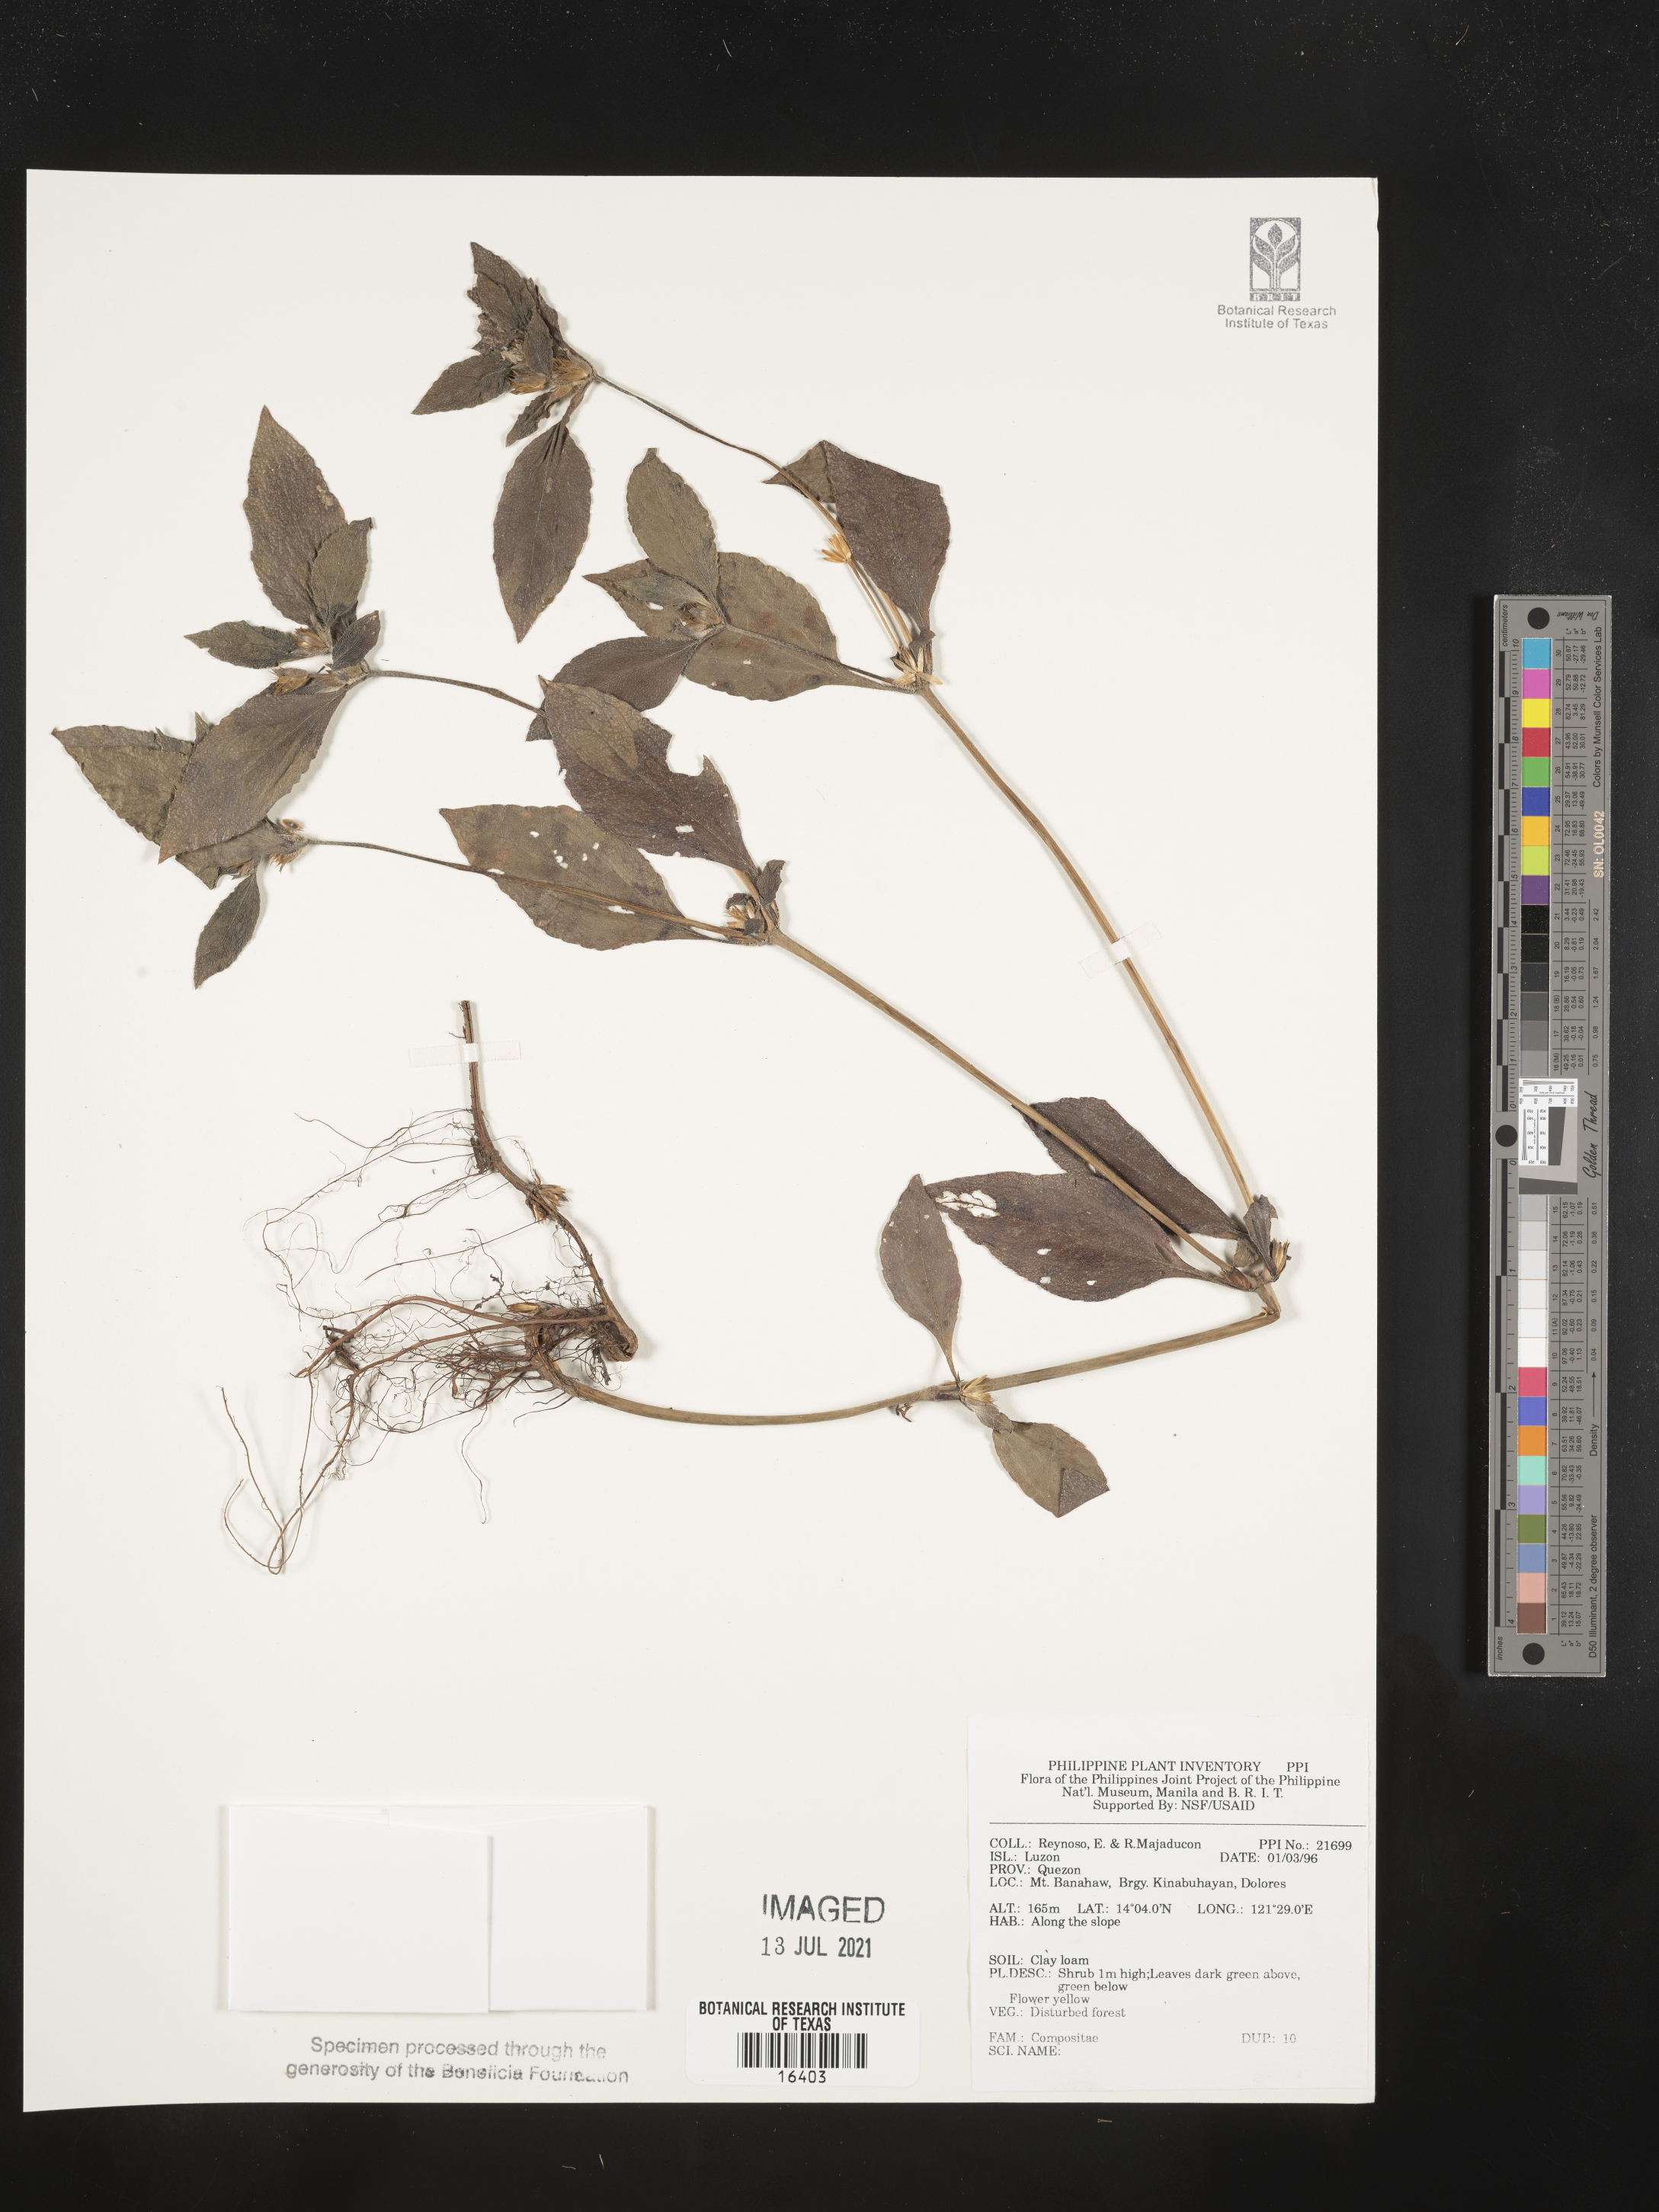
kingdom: Plantae
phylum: Tracheophyta
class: Magnoliopsida
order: Asterales
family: Asteraceae
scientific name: Asteraceae
